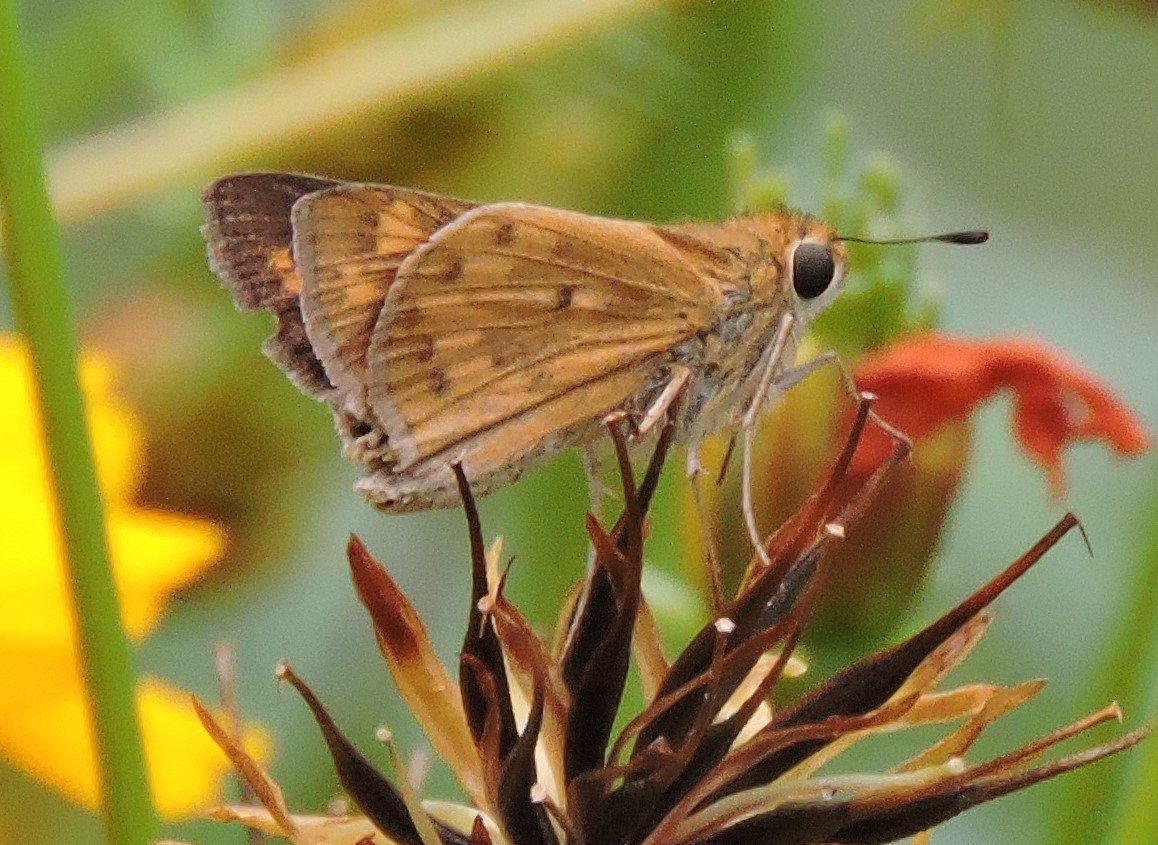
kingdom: Animalia
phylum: Arthropoda
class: Insecta
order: Lepidoptera
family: Hesperiidae
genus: Hylephila
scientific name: Hylephila phyleus
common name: Fiery Skipper
